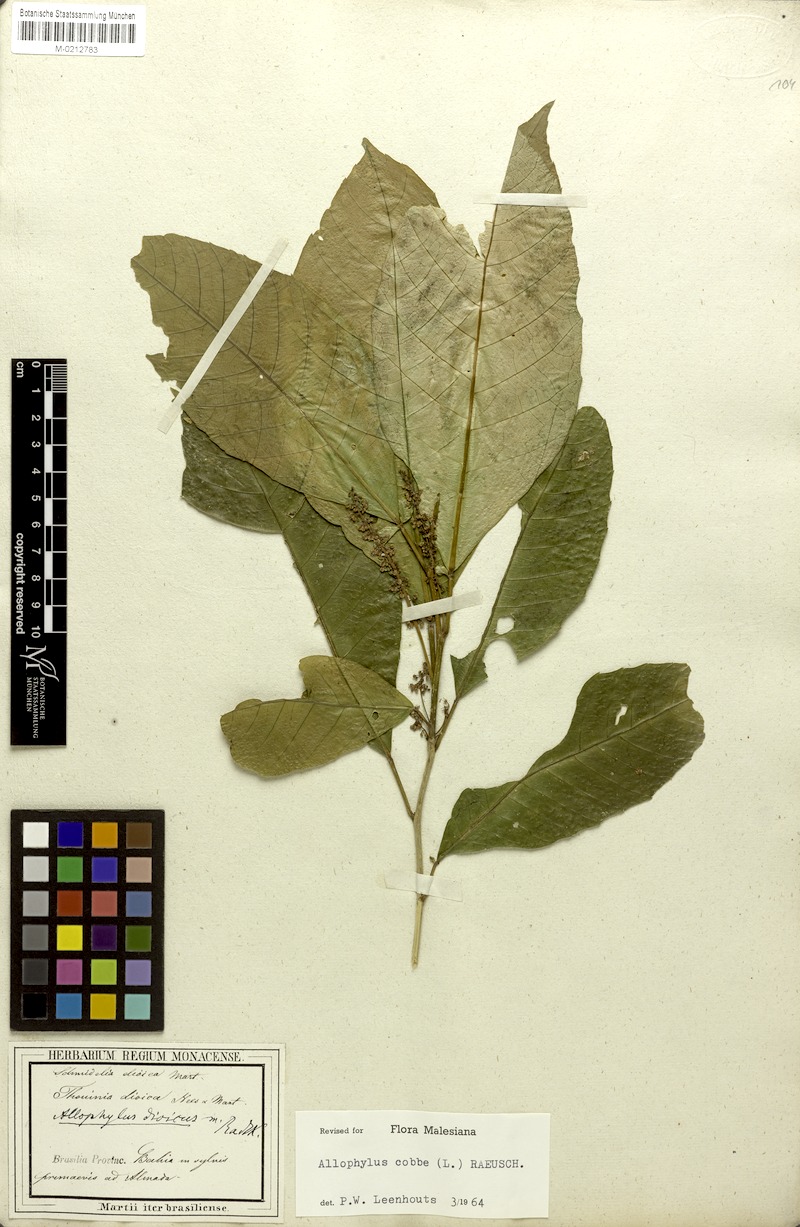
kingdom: Plantae
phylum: Tracheophyta
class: Magnoliopsida
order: Sapindales
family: Sapindaceae
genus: Allophylus
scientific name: Allophylus dioicus
